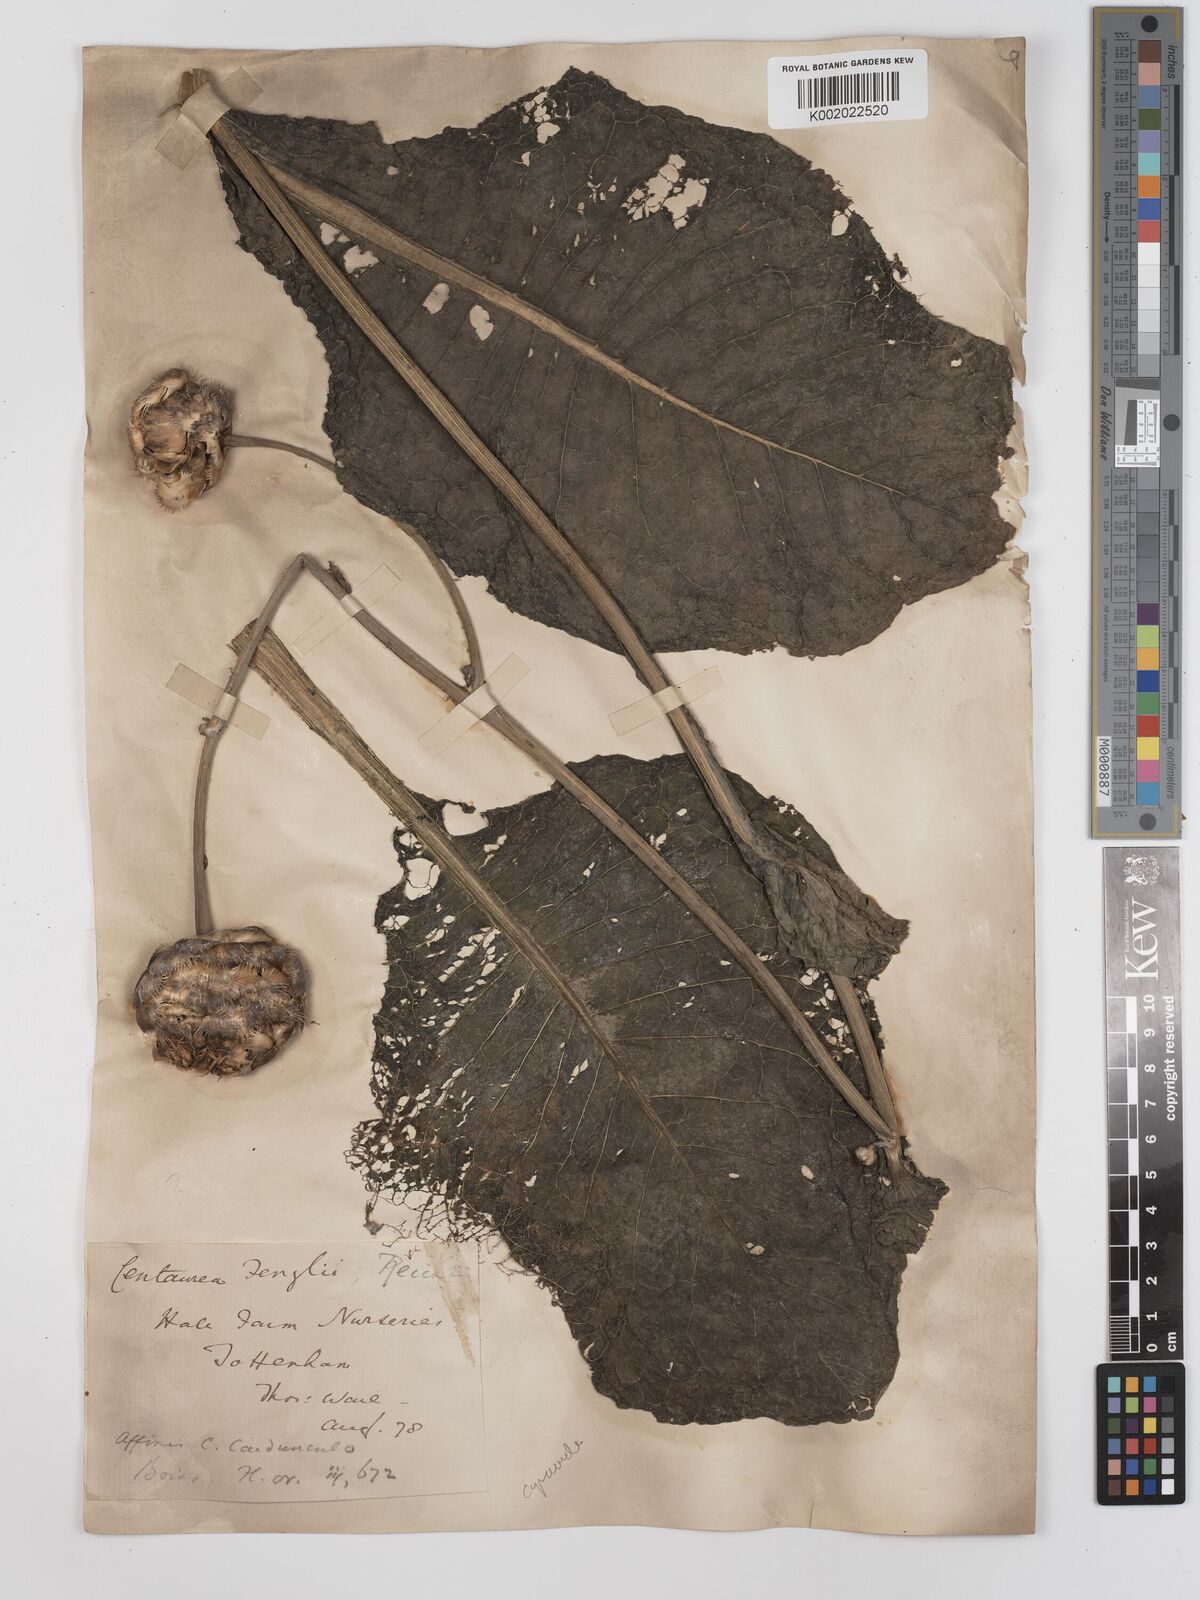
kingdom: Plantae
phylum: Tracheophyta
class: Magnoliopsida
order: Asterales
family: Asteraceae
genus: Centaurea
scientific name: Centaurea fenzlii
